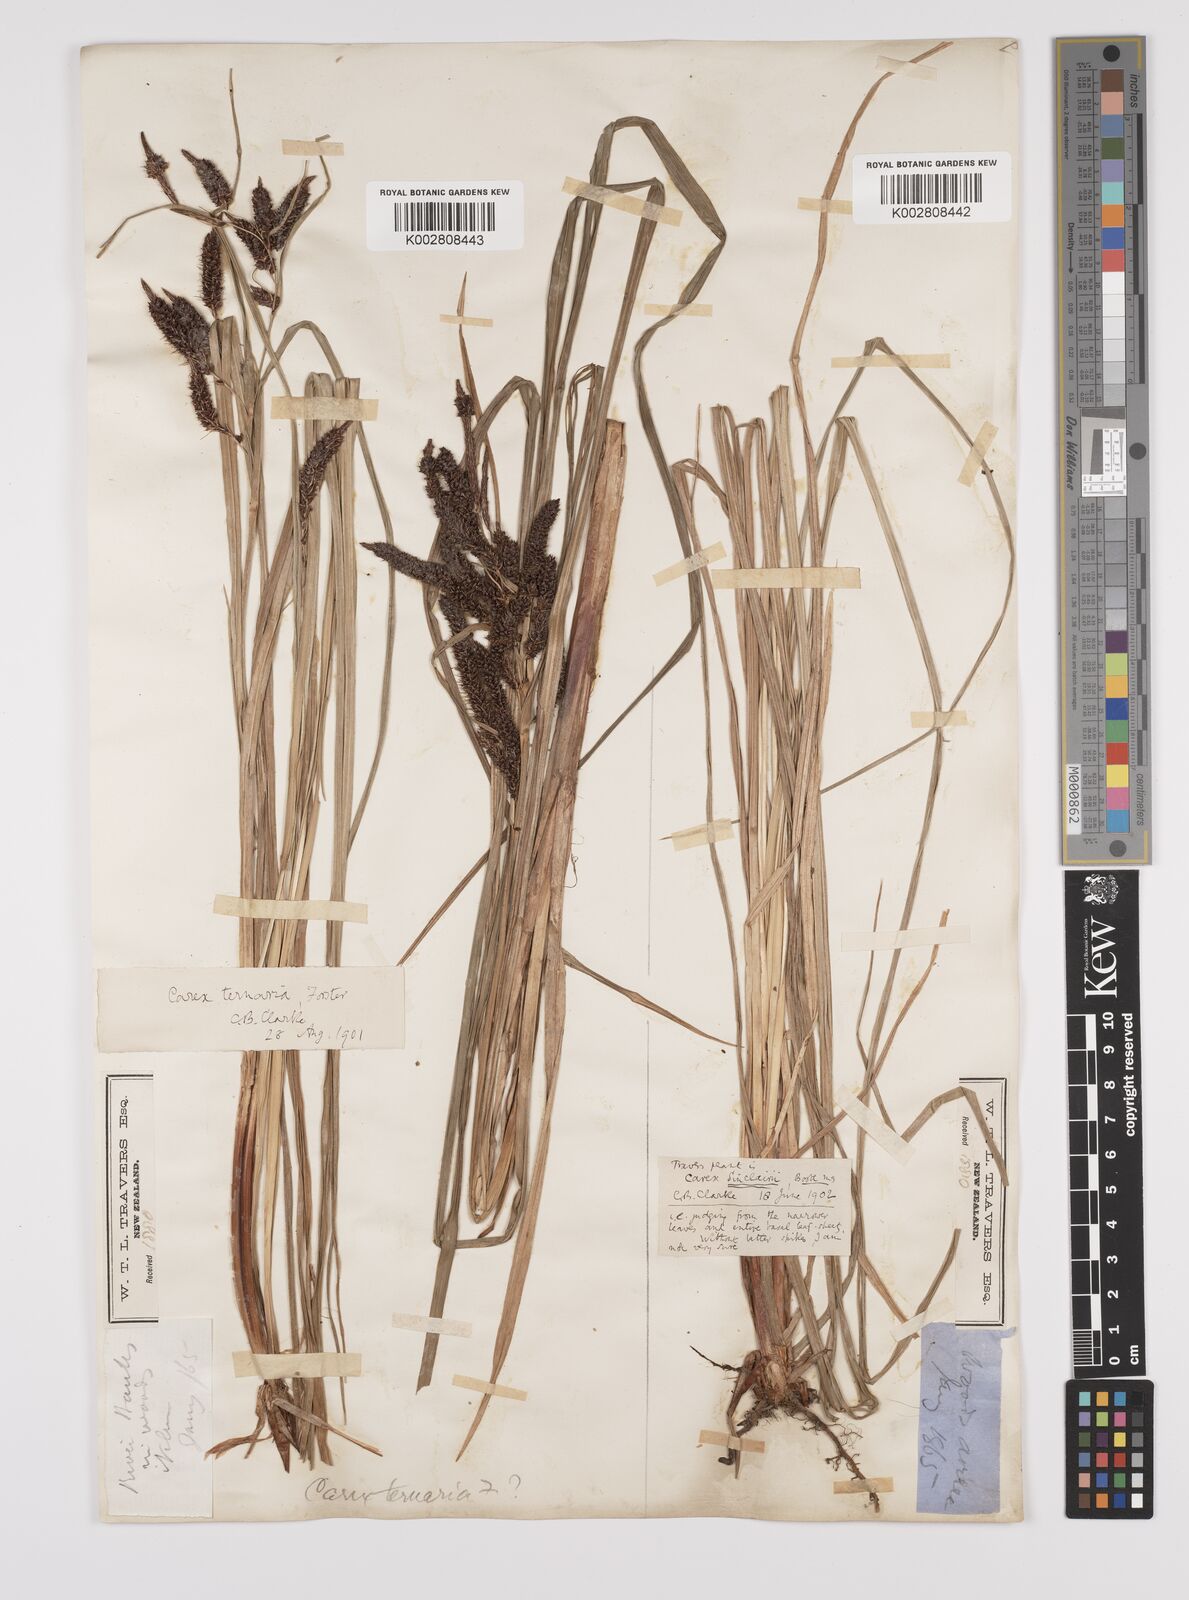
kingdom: Plantae
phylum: Tracheophyta
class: Liliopsida
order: Poales
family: Cyperaceae
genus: Carex
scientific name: Carex lessoniana
